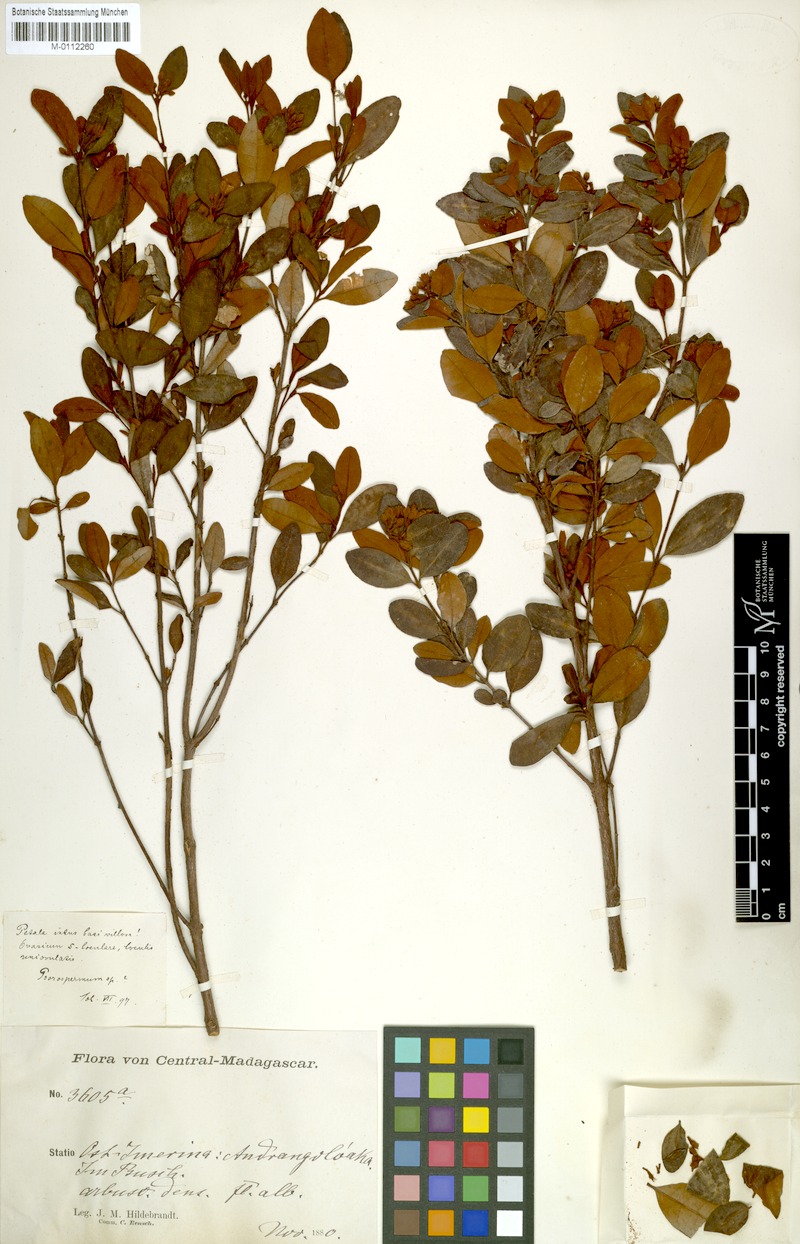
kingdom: Plantae
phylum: Tracheophyta
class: Magnoliopsida
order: Malpighiales
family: Hypericaceae
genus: Psorospermum
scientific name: Psorospermum
